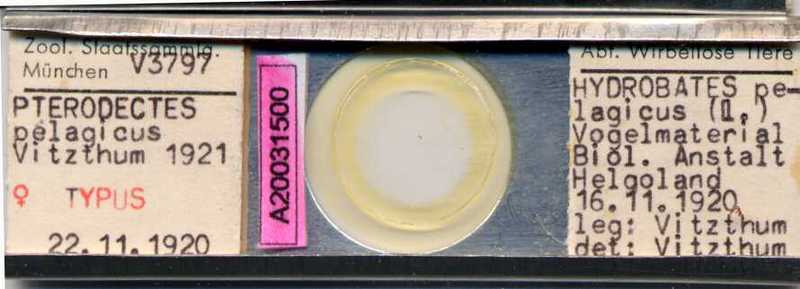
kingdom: Animalia
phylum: Arthropoda
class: Arachnida
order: Sarcoptiformes
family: Alloptidae
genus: Brephosceles
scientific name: Brephosceles pelagicus
